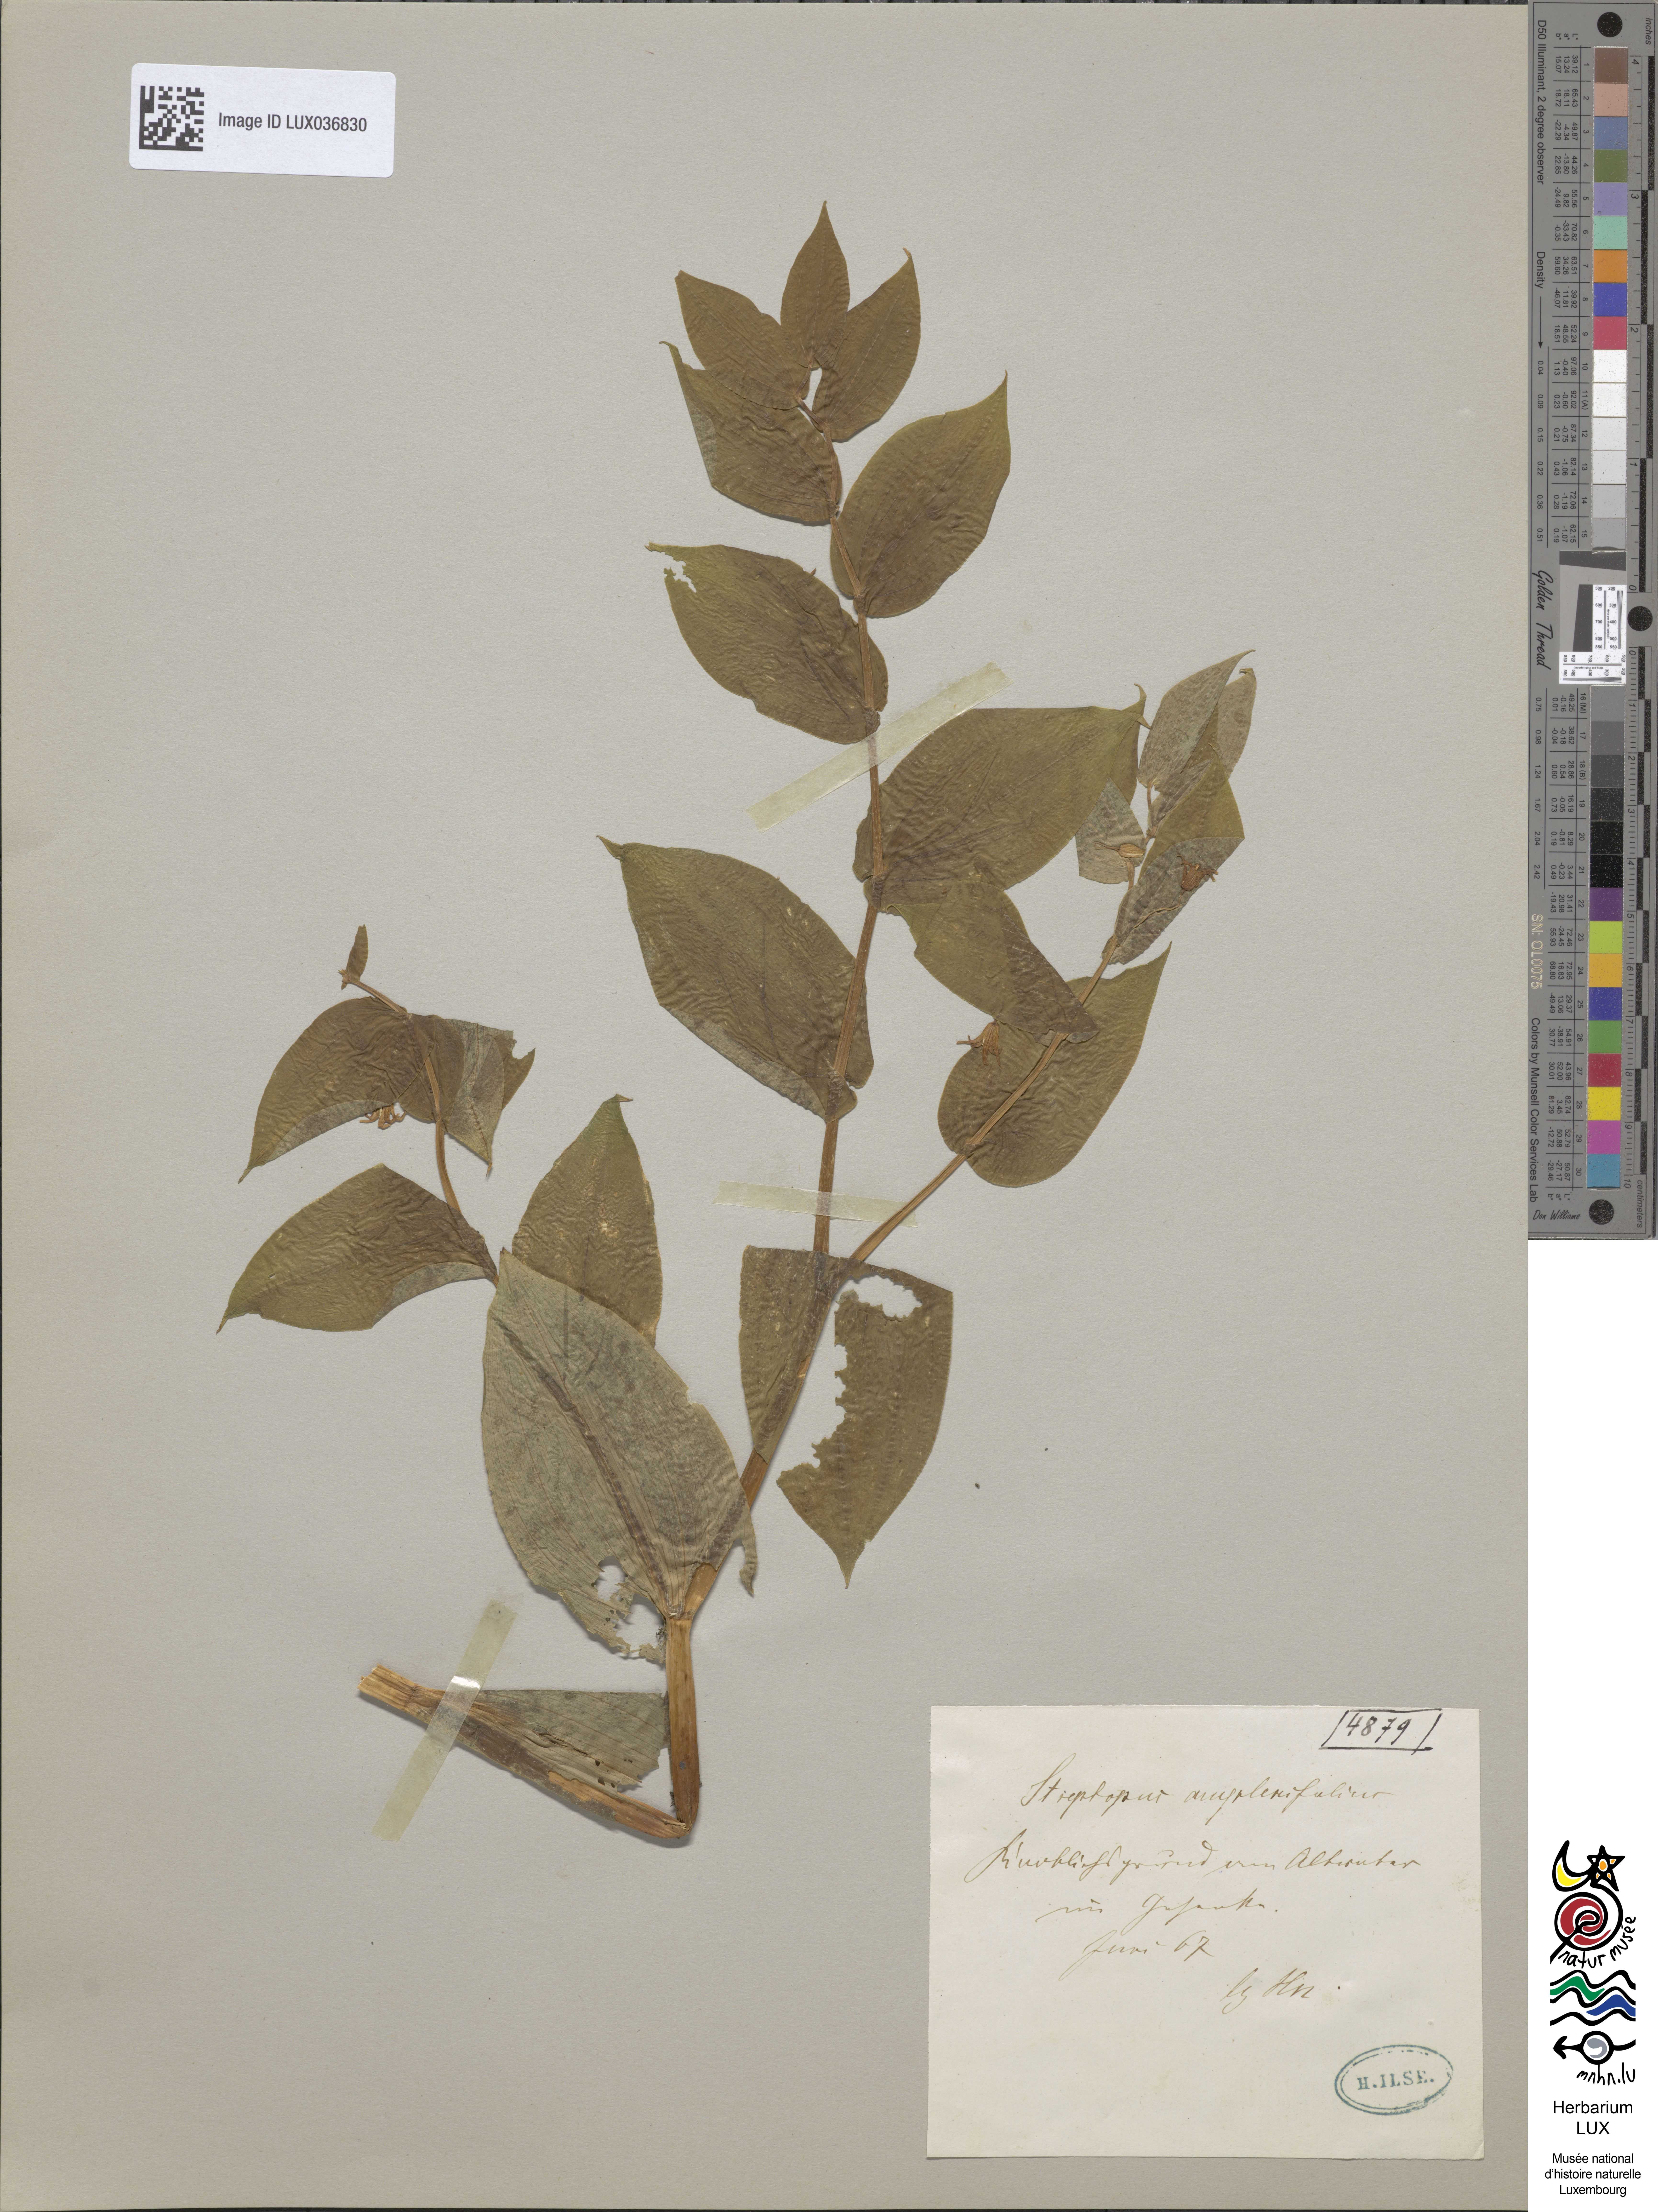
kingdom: Plantae
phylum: Tracheophyta
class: Liliopsida
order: Liliales
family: Liliaceae
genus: Streptopus
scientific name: Streptopus amplexifolius
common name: Clasp twisted stalk
